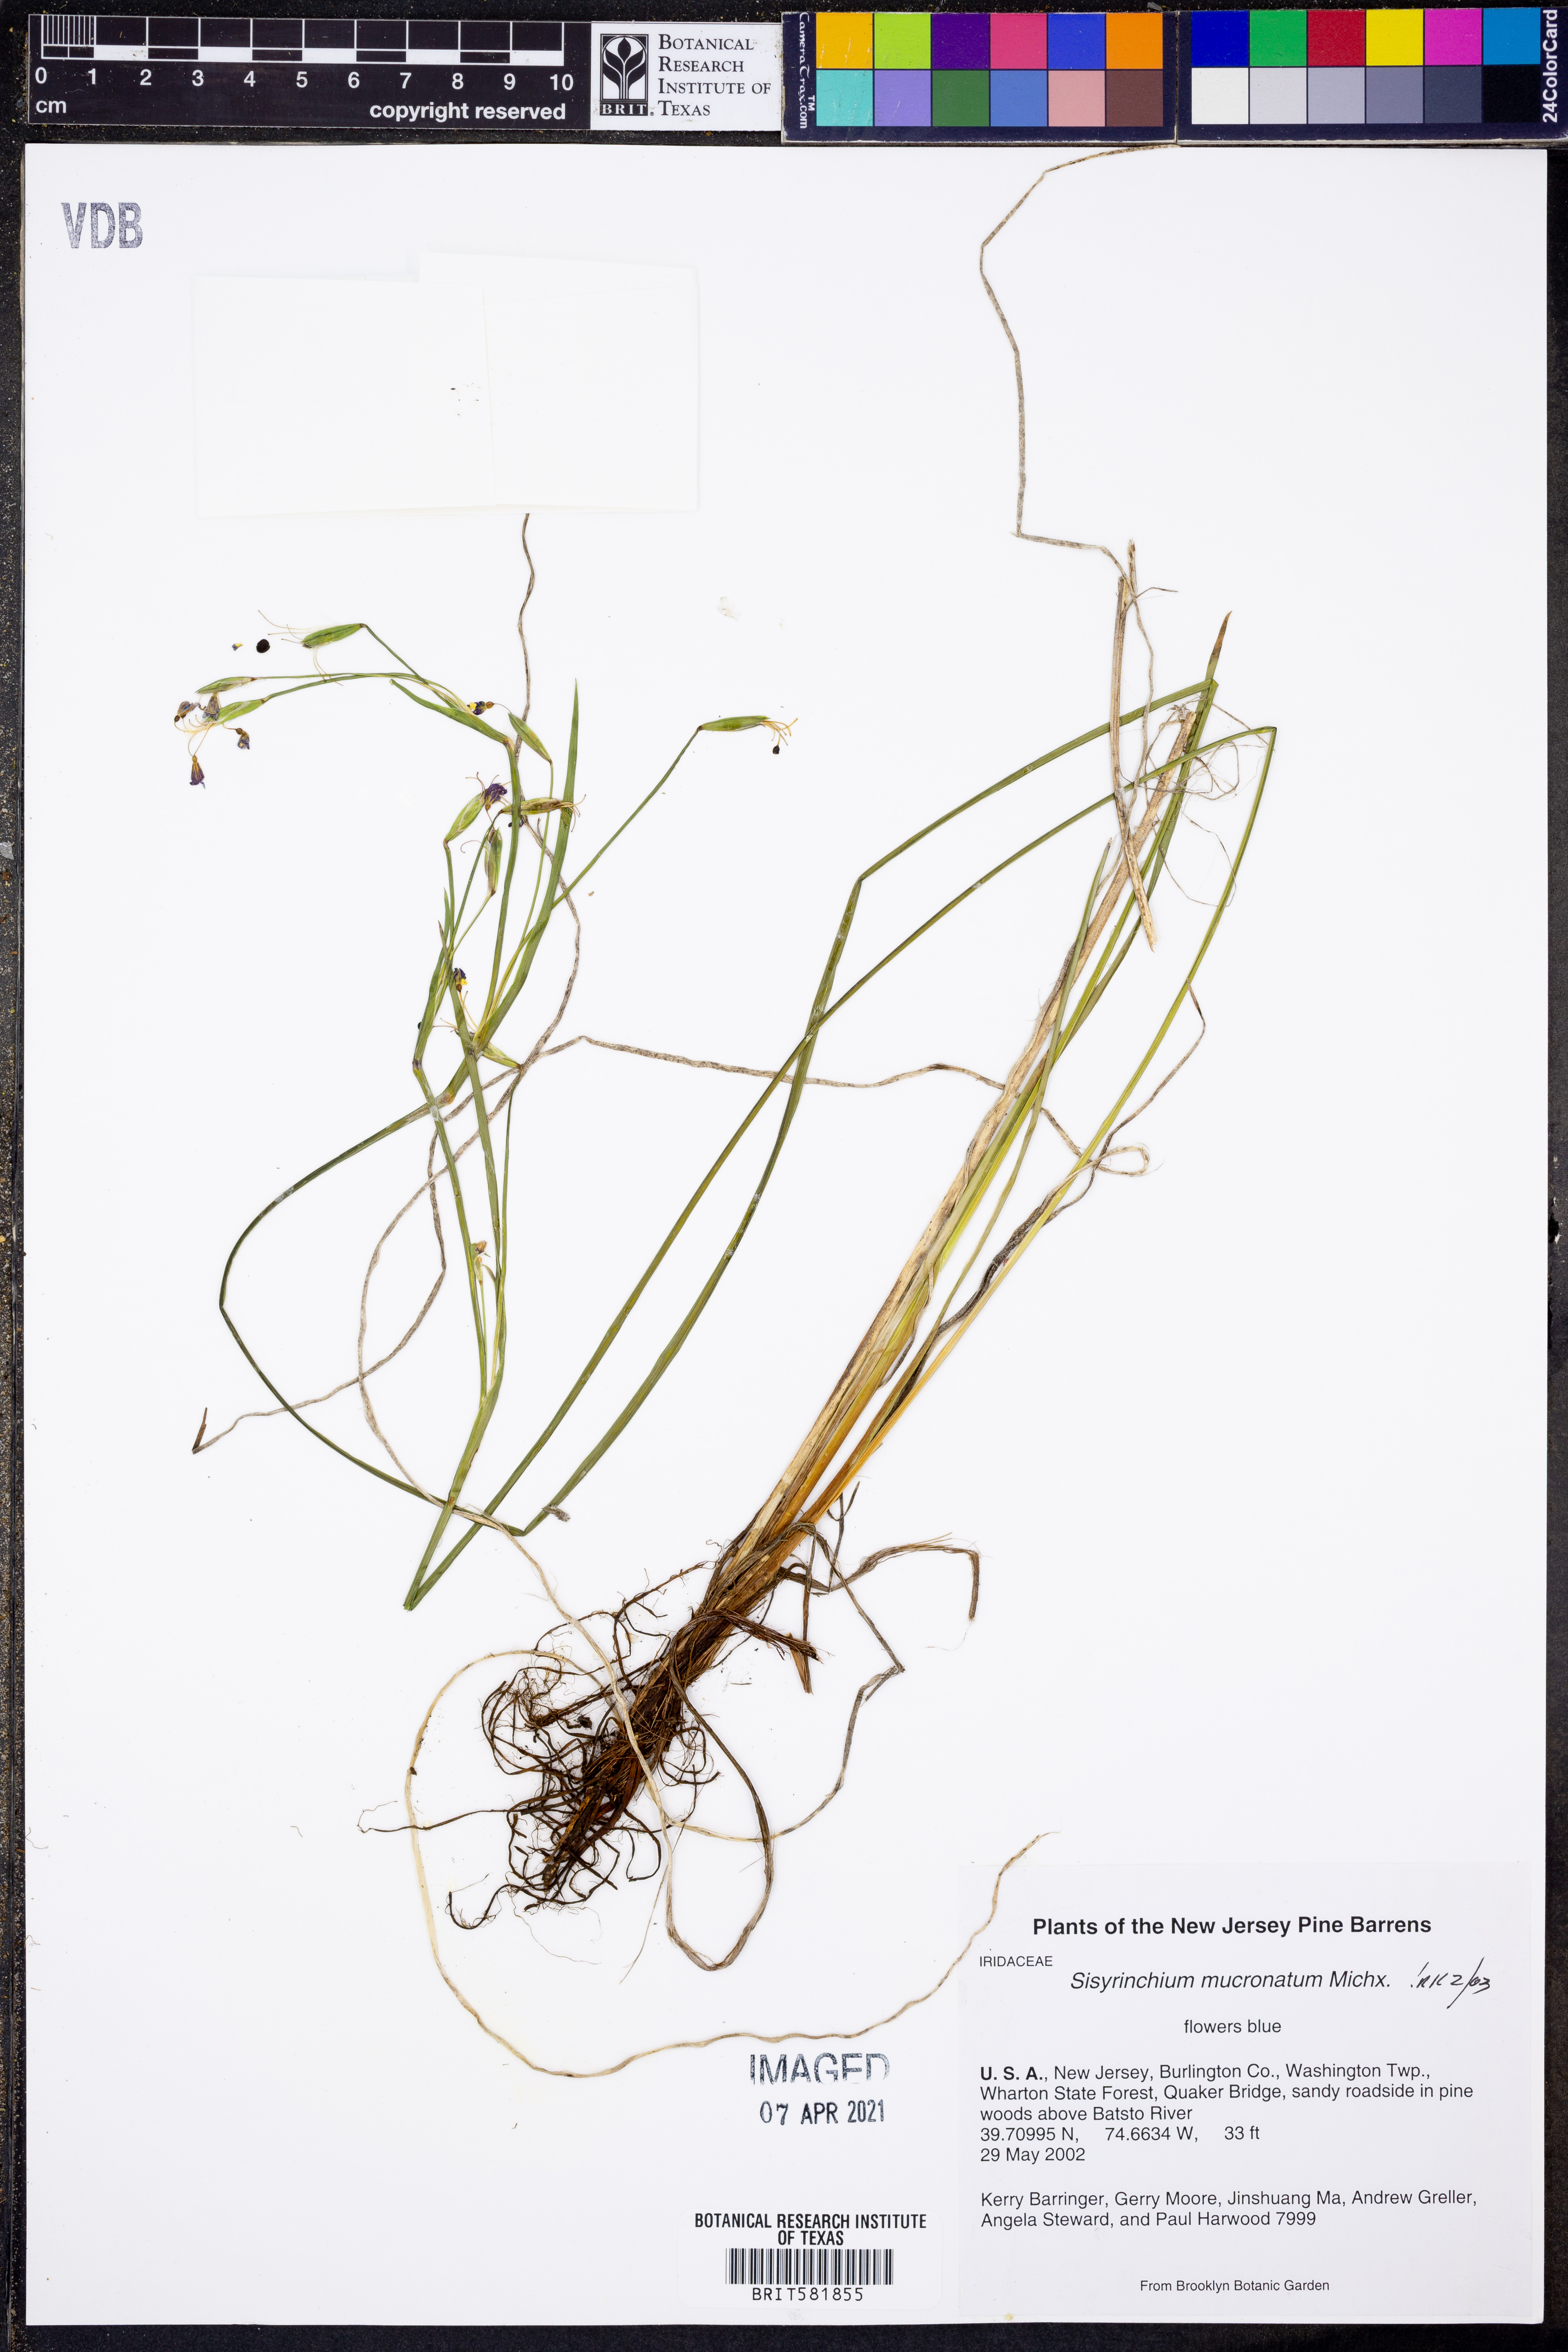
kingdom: Plantae
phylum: Tracheophyta
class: Liliopsida
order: Asparagales
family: Iridaceae
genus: Sisyrinchium
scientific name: Sisyrinchium mucronatum
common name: Eastern blue-eyed-grass
